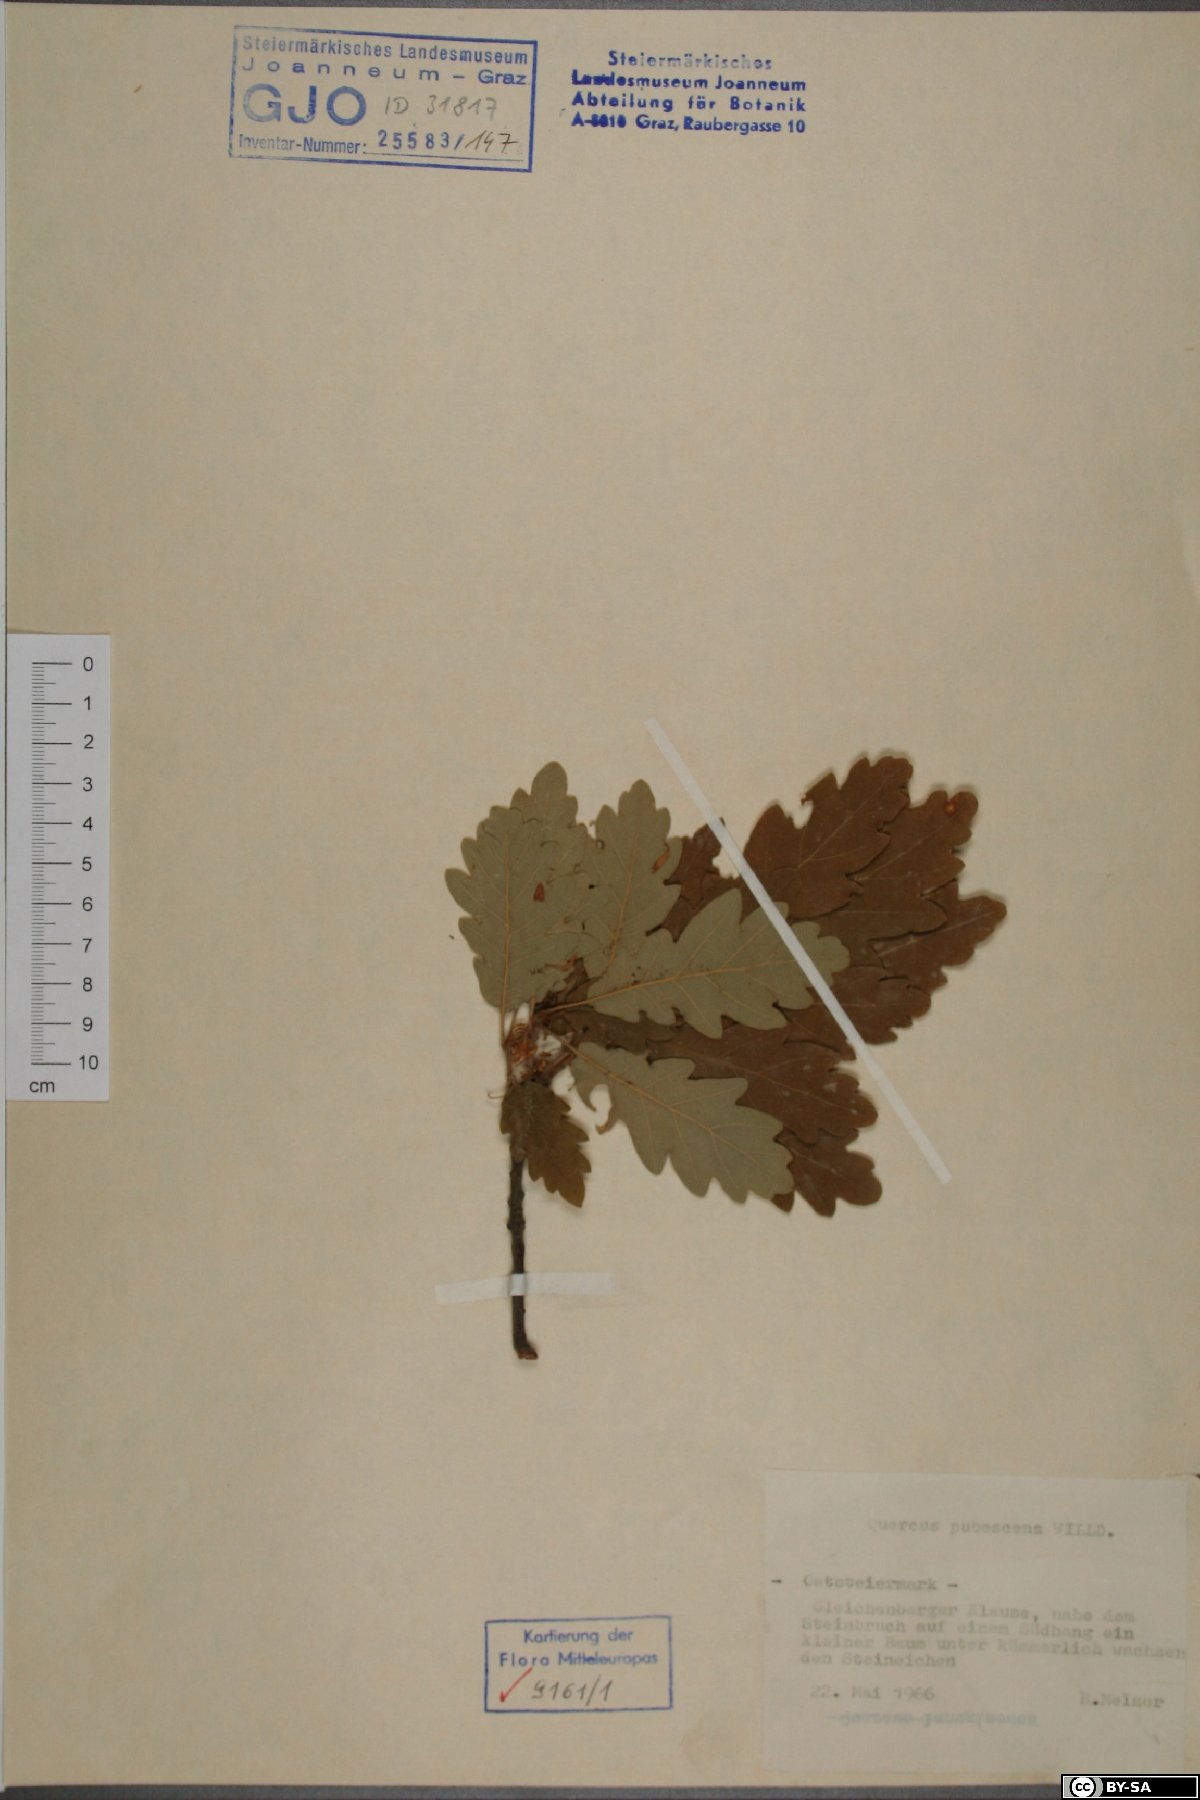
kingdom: Plantae
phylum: Tracheophyta
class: Magnoliopsida
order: Fagales
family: Fagaceae
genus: Quercus
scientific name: Quercus pubescens
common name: Downy oak
